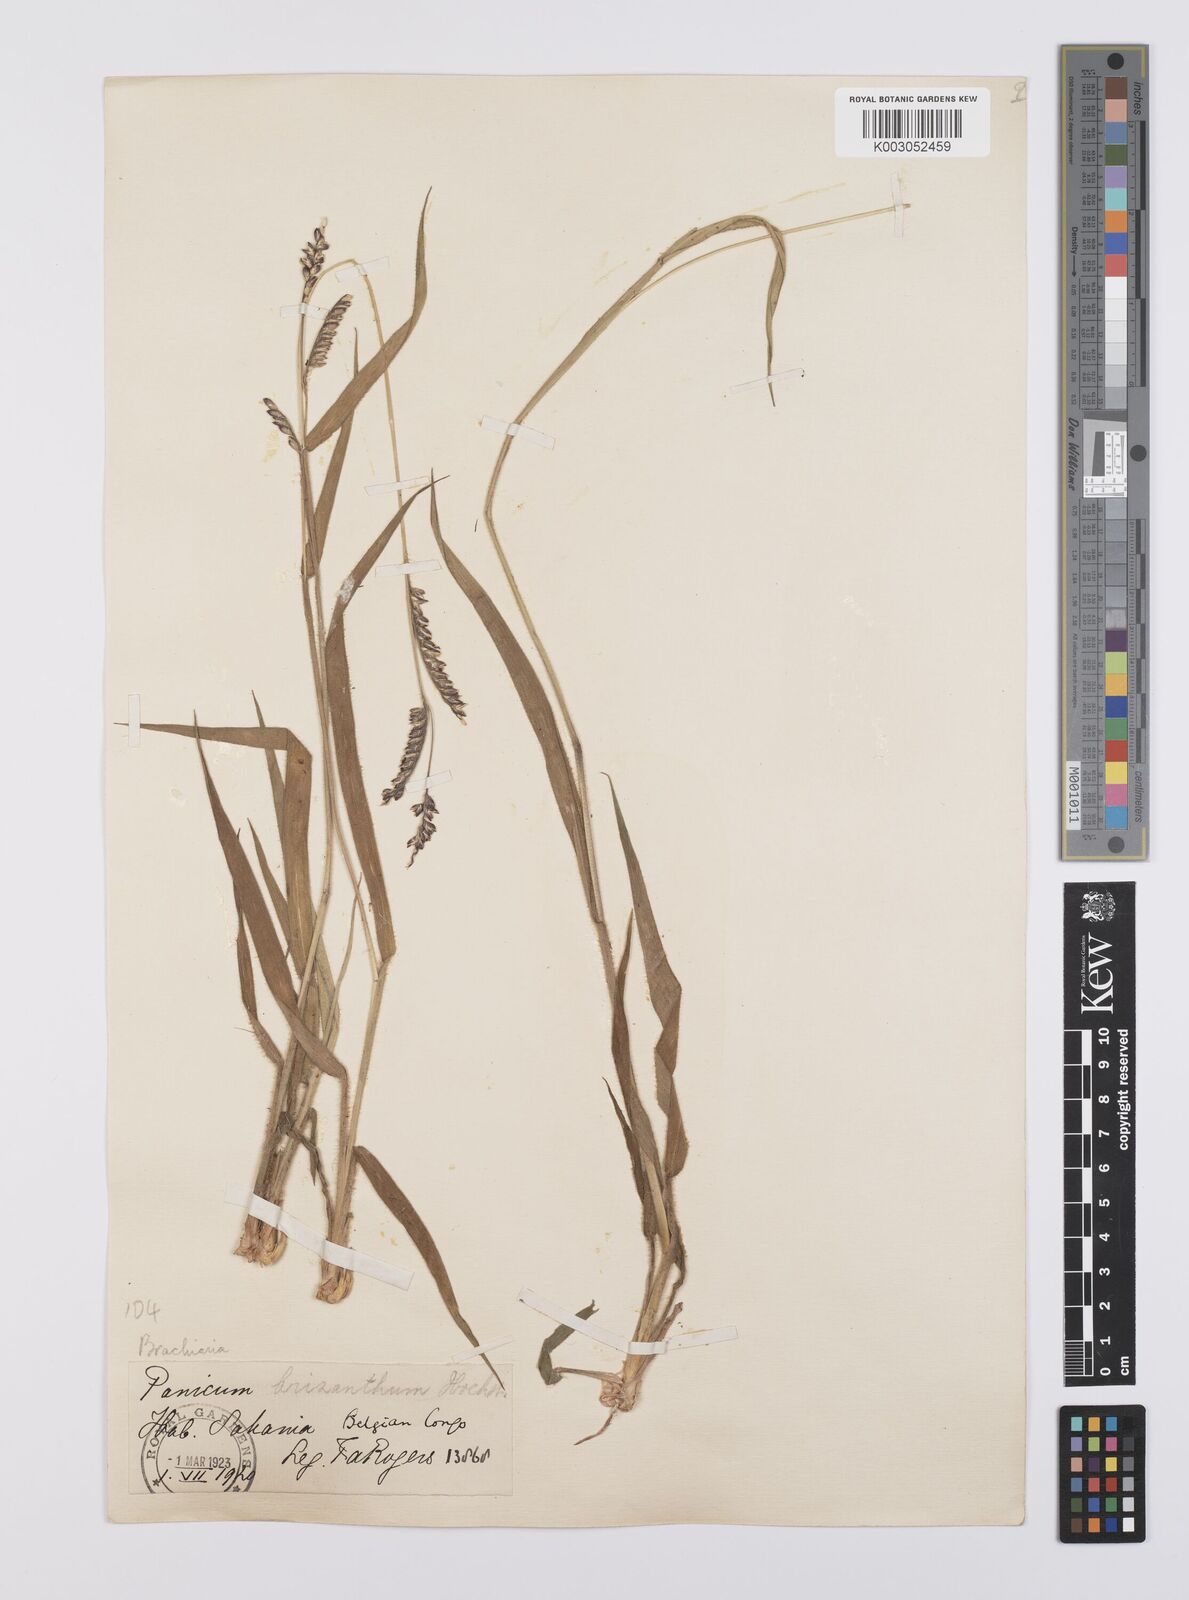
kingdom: Plantae
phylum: Tracheophyta
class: Liliopsida
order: Poales
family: Poaceae
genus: Urochloa
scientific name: Urochloa brizantha
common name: Palisade signalgrass
